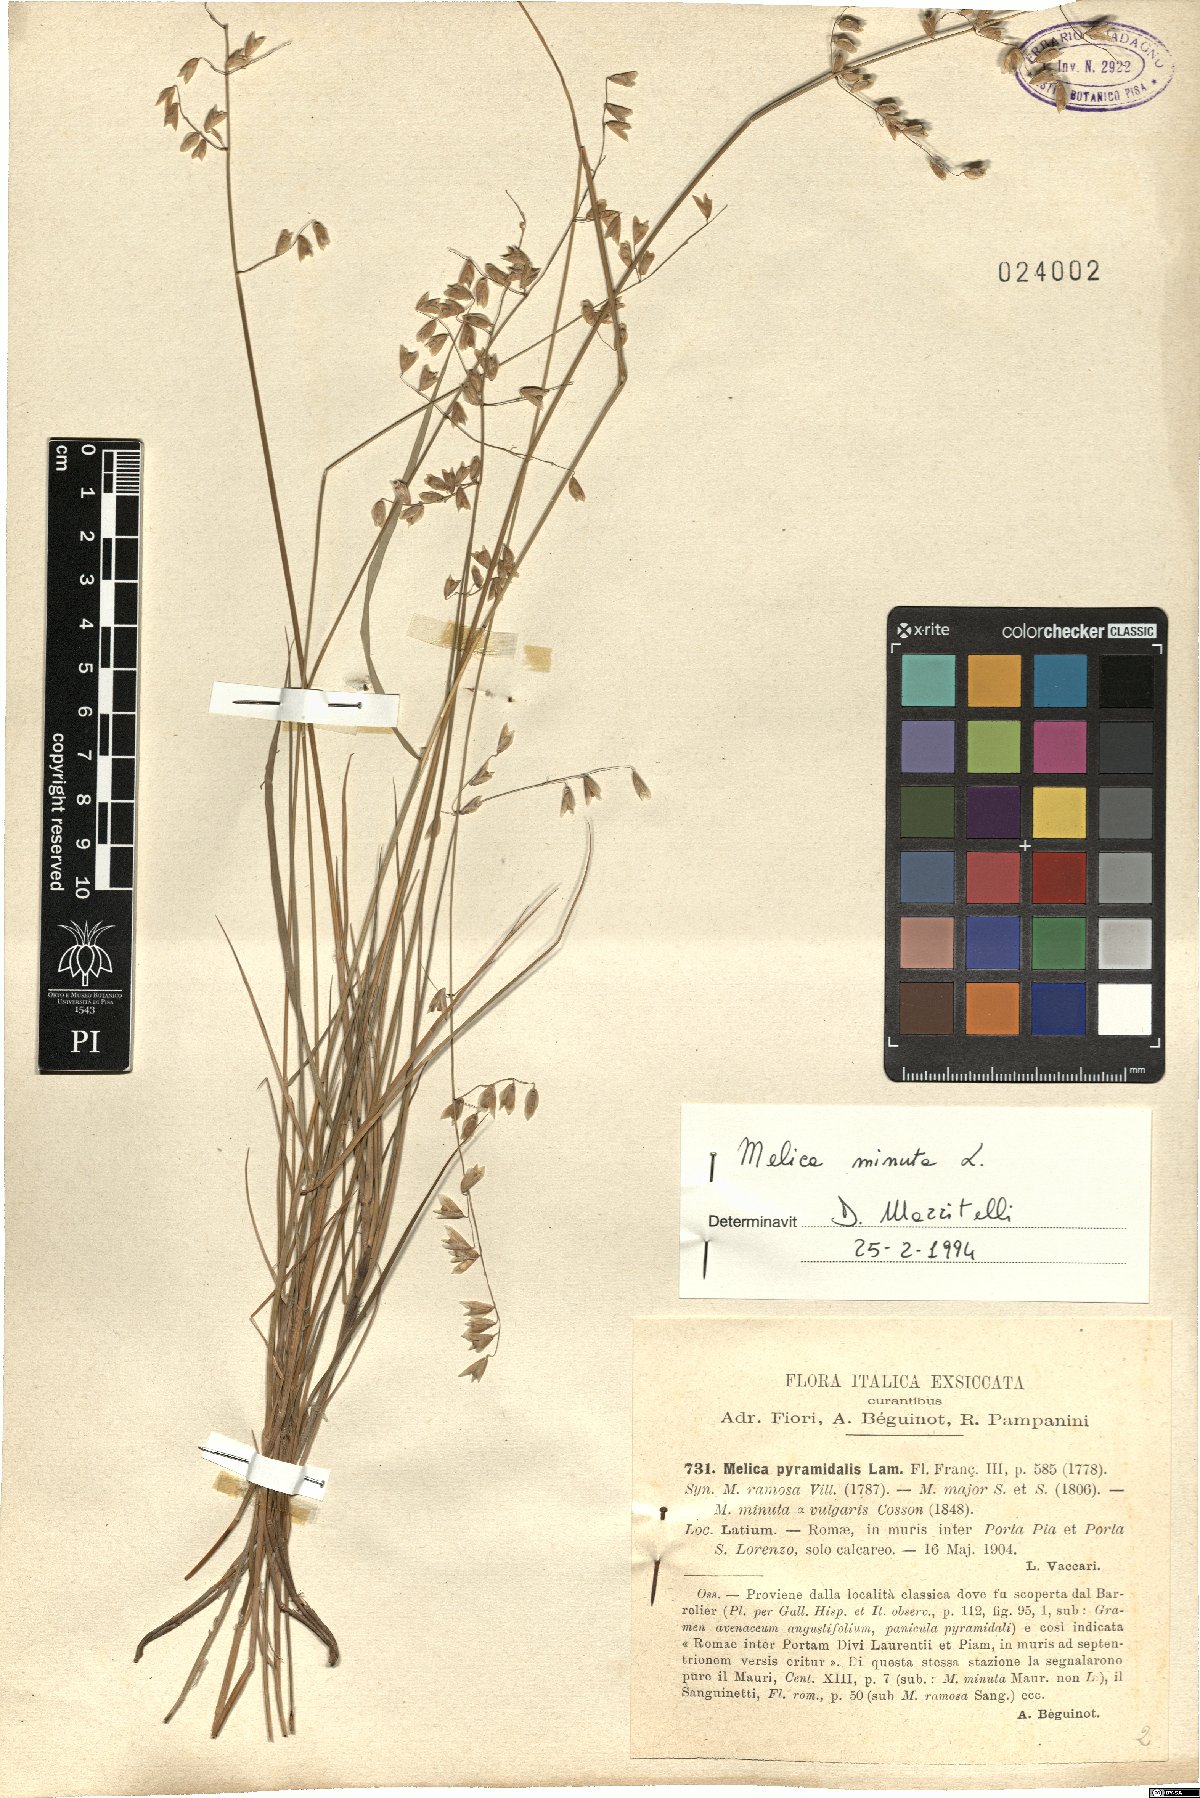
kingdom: Plantae
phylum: Tracheophyta
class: Liliopsida
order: Poales
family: Poaceae
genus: Melica
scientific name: Melica minuta
